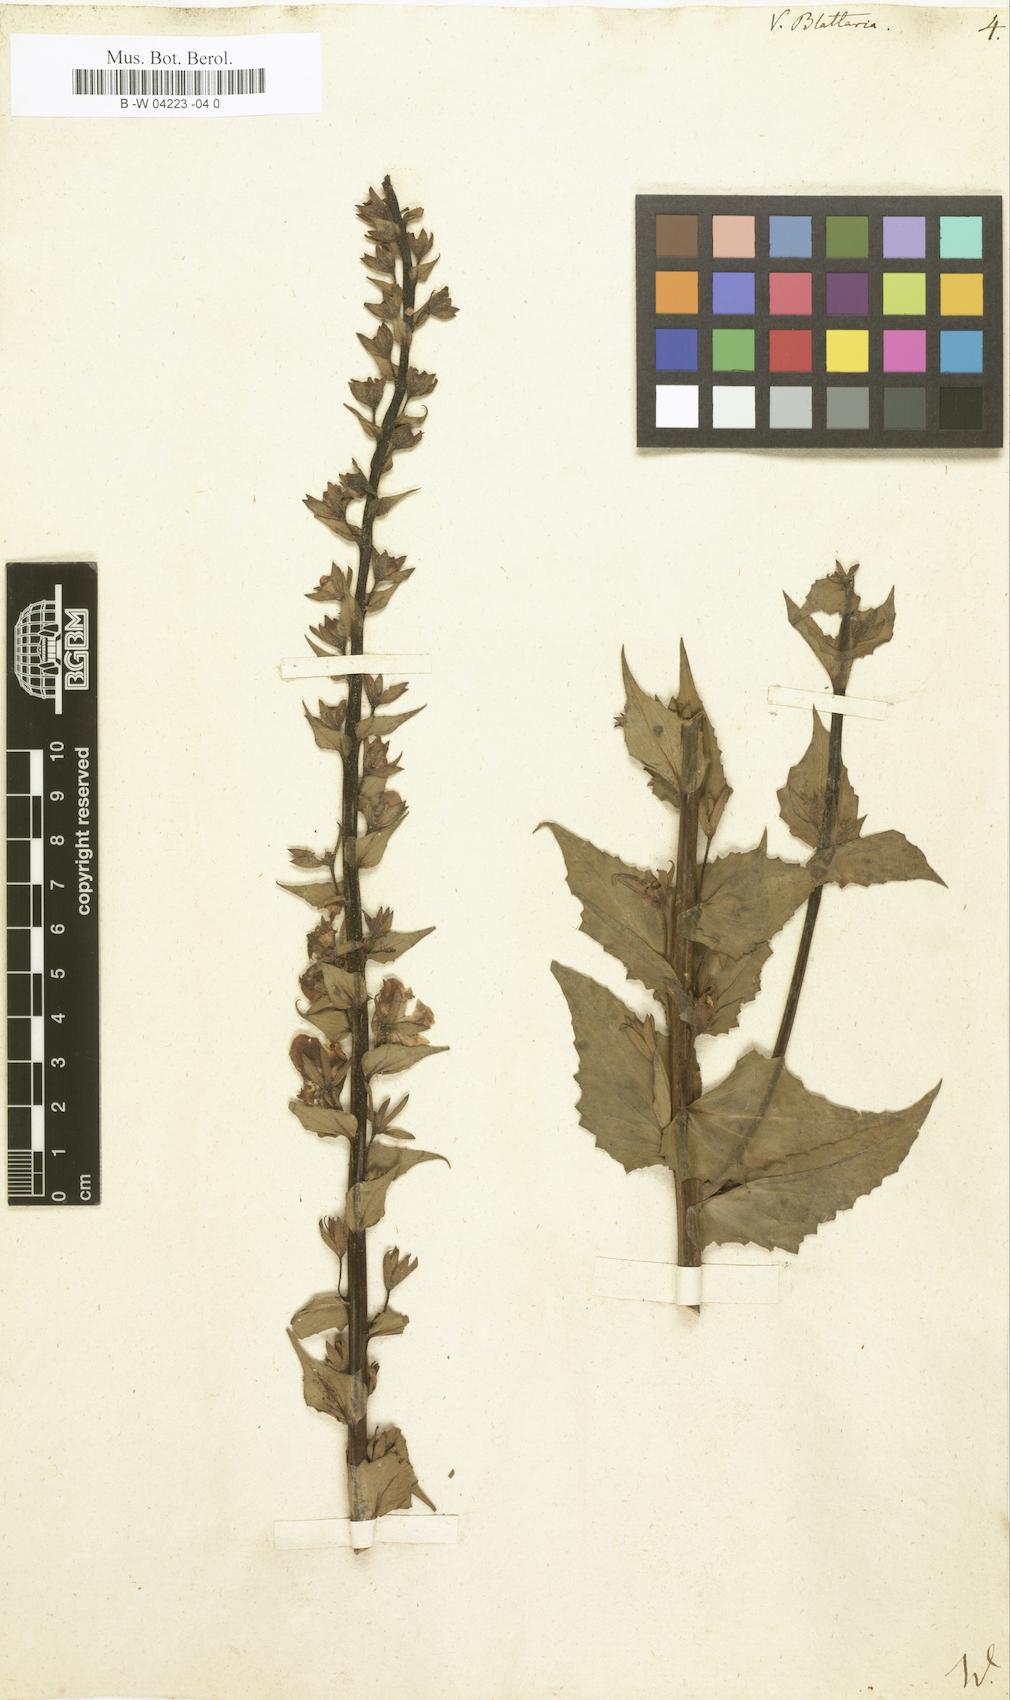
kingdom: Plantae
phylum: Tracheophyta
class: Magnoliopsida
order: Lamiales
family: Scrophulariaceae
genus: Verbascum
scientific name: Verbascum blattaria
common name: Moth mullein
